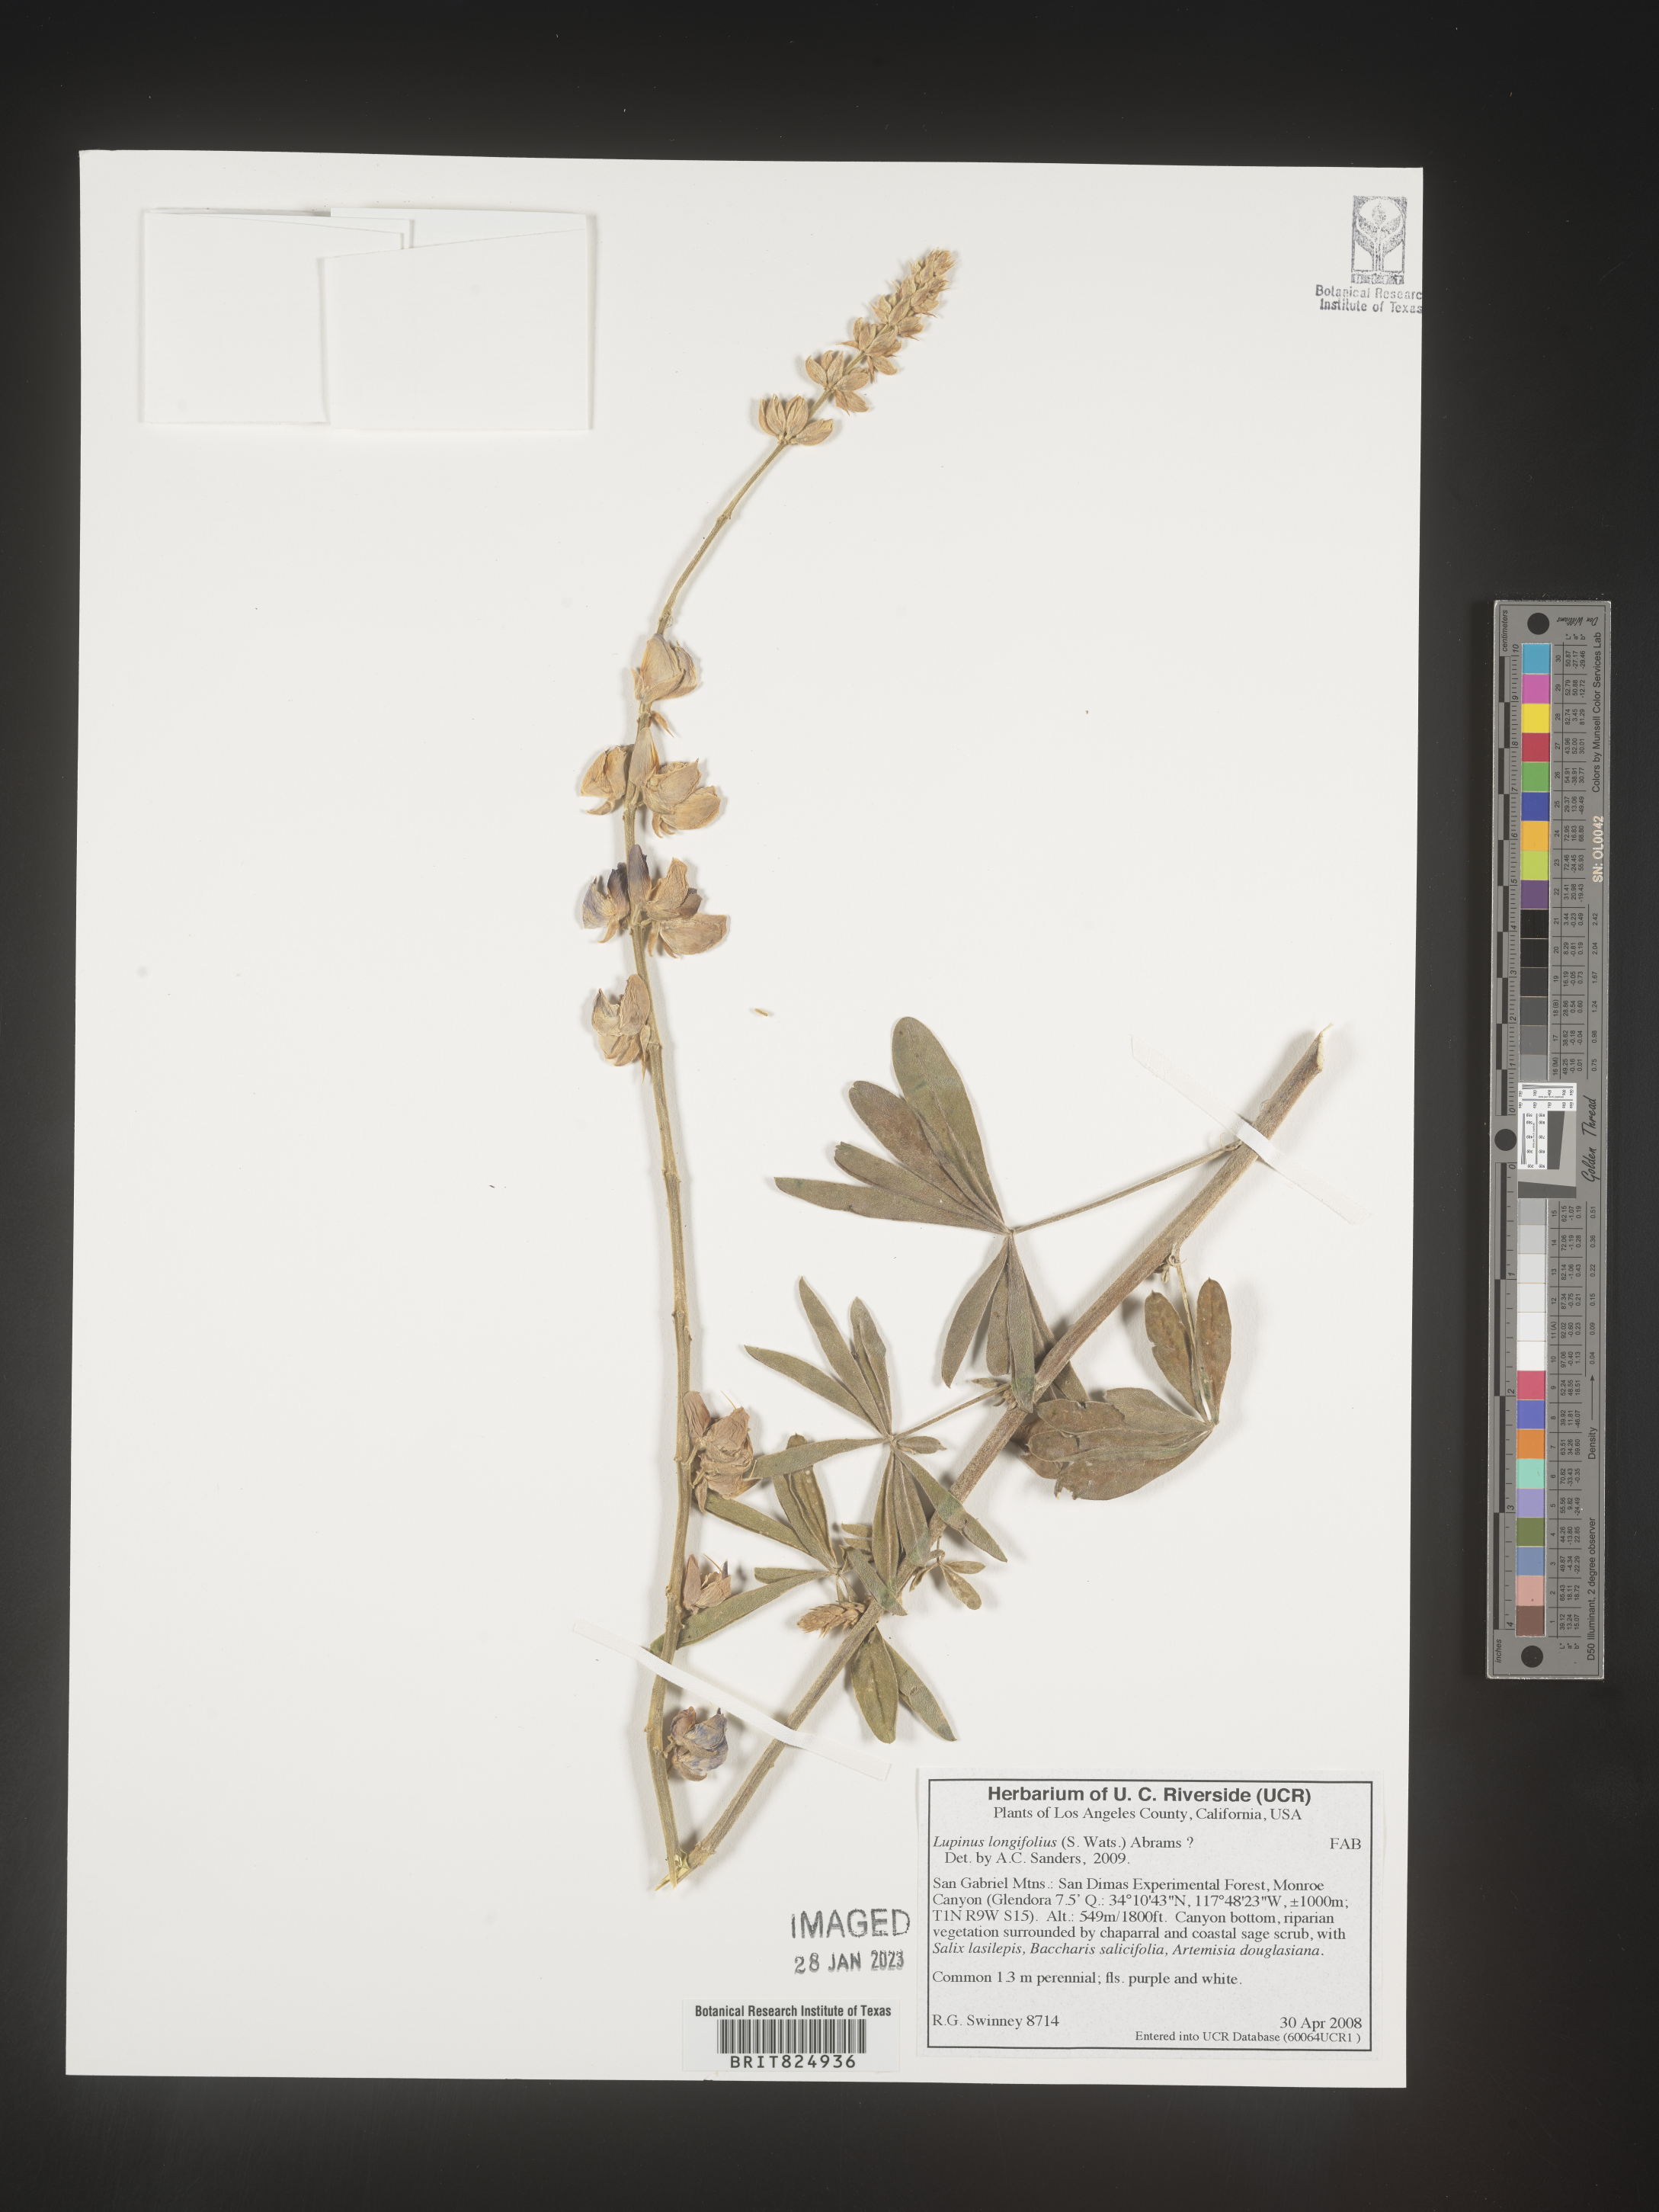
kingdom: Plantae
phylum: Tracheophyta
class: Magnoliopsida
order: Fabales
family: Fabaceae
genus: Lupinus
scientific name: Lupinus
